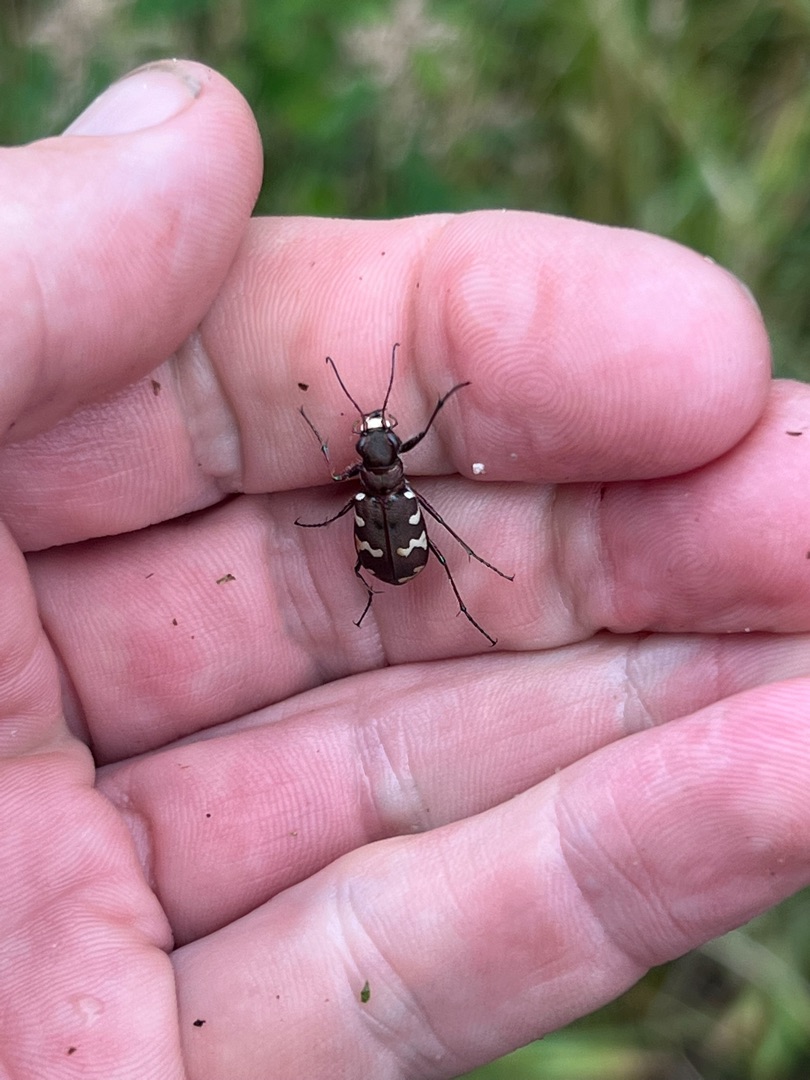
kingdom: Animalia
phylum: Arthropoda
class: Insecta
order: Coleoptera
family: Carabidae
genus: Cicindela
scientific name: Cicindela hybrida
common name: Brun sandspringer
